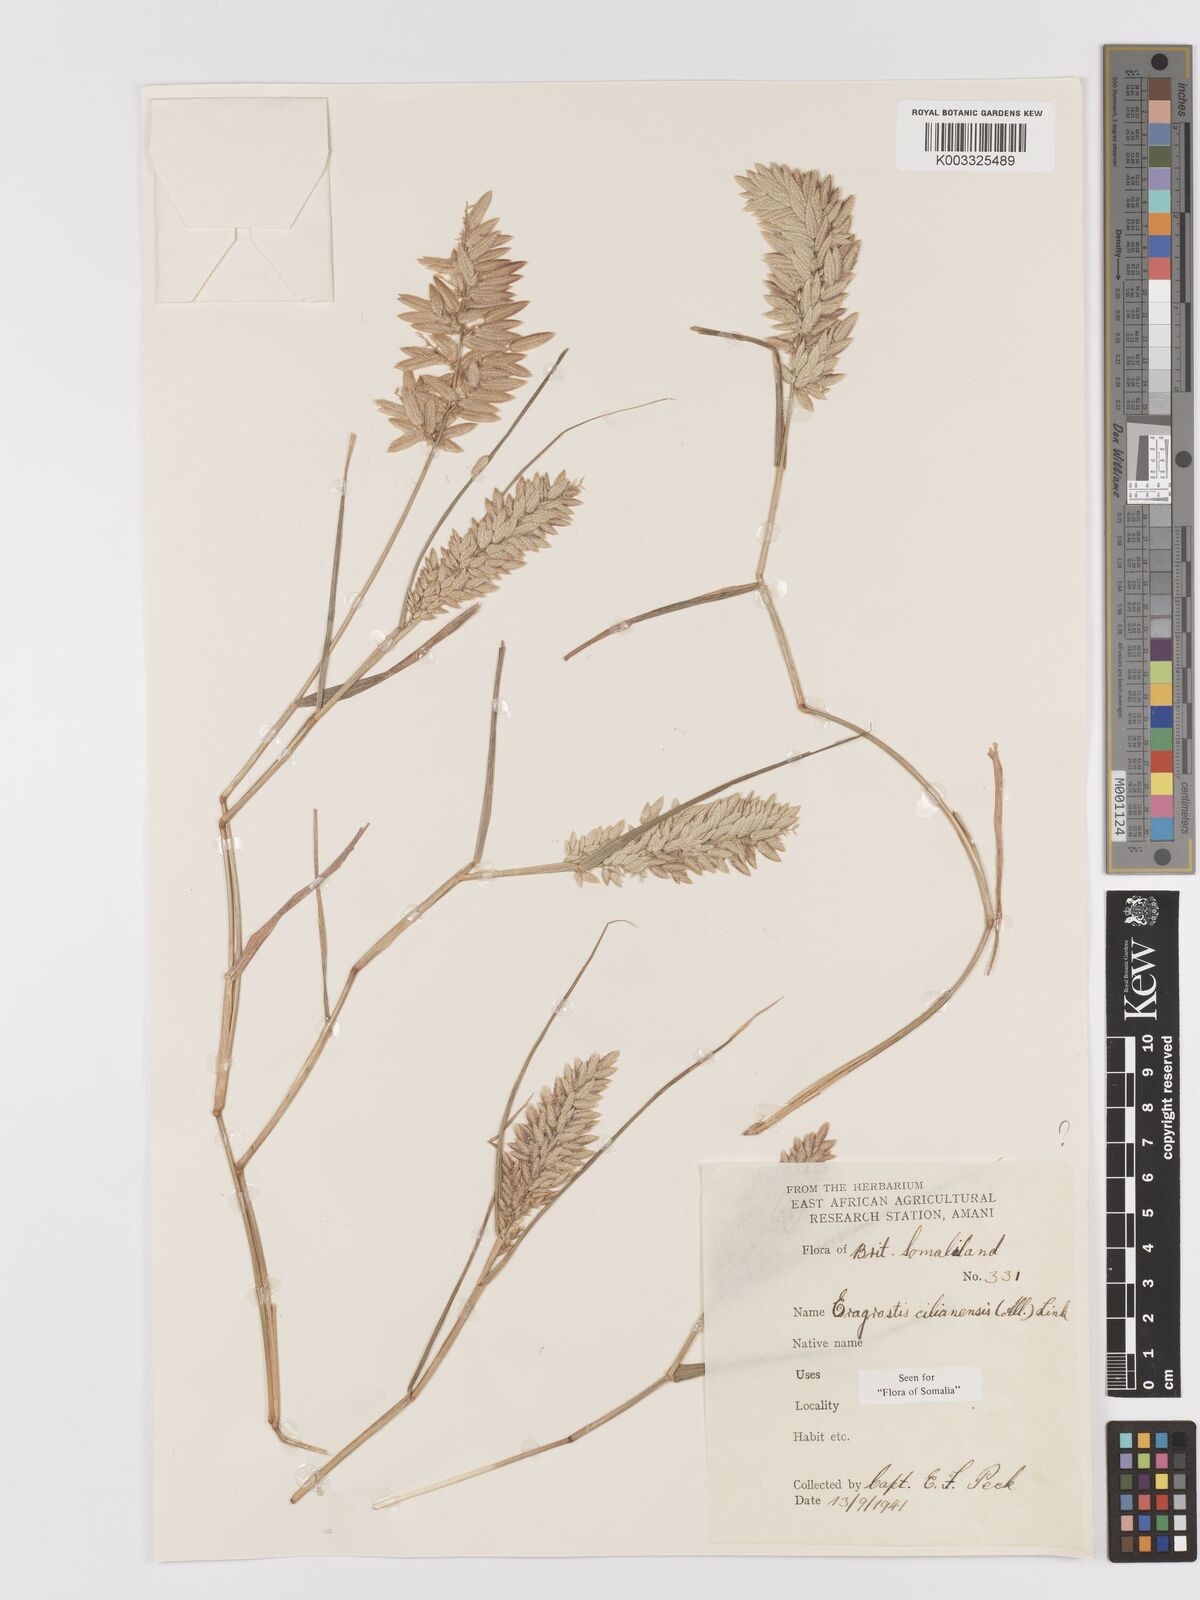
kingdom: Plantae
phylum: Tracheophyta
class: Liliopsida
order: Poales
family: Poaceae
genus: Eragrostis
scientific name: Eragrostis cilianensis
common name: Stinkgrass
